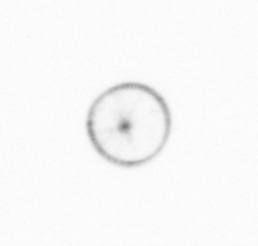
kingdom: Chromista
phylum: Myzozoa
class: Dinophyceae
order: Noctilucales
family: Noctilucaceae
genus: Noctiluca
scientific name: Noctiluca scintillans
